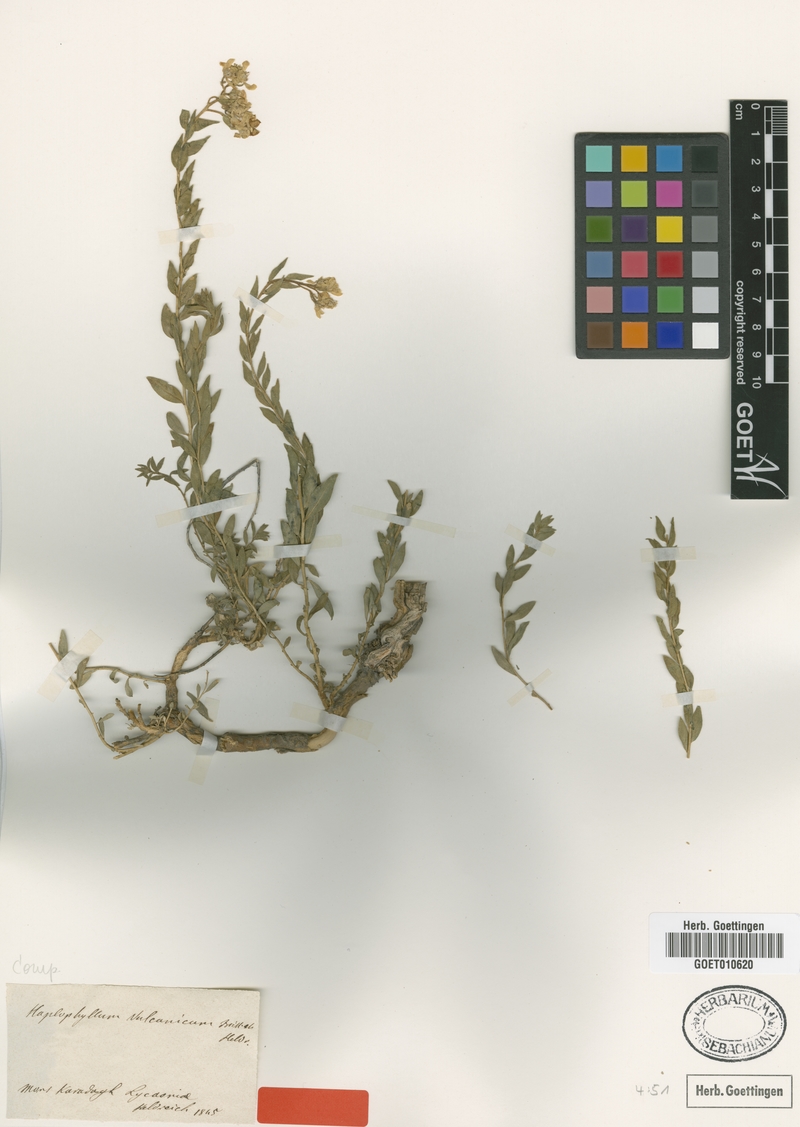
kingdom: Plantae
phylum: Tracheophyta
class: Magnoliopsida
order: Sapindales
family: Rutaceae
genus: Haplophyllum
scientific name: Haplophyllum vulcanicum
